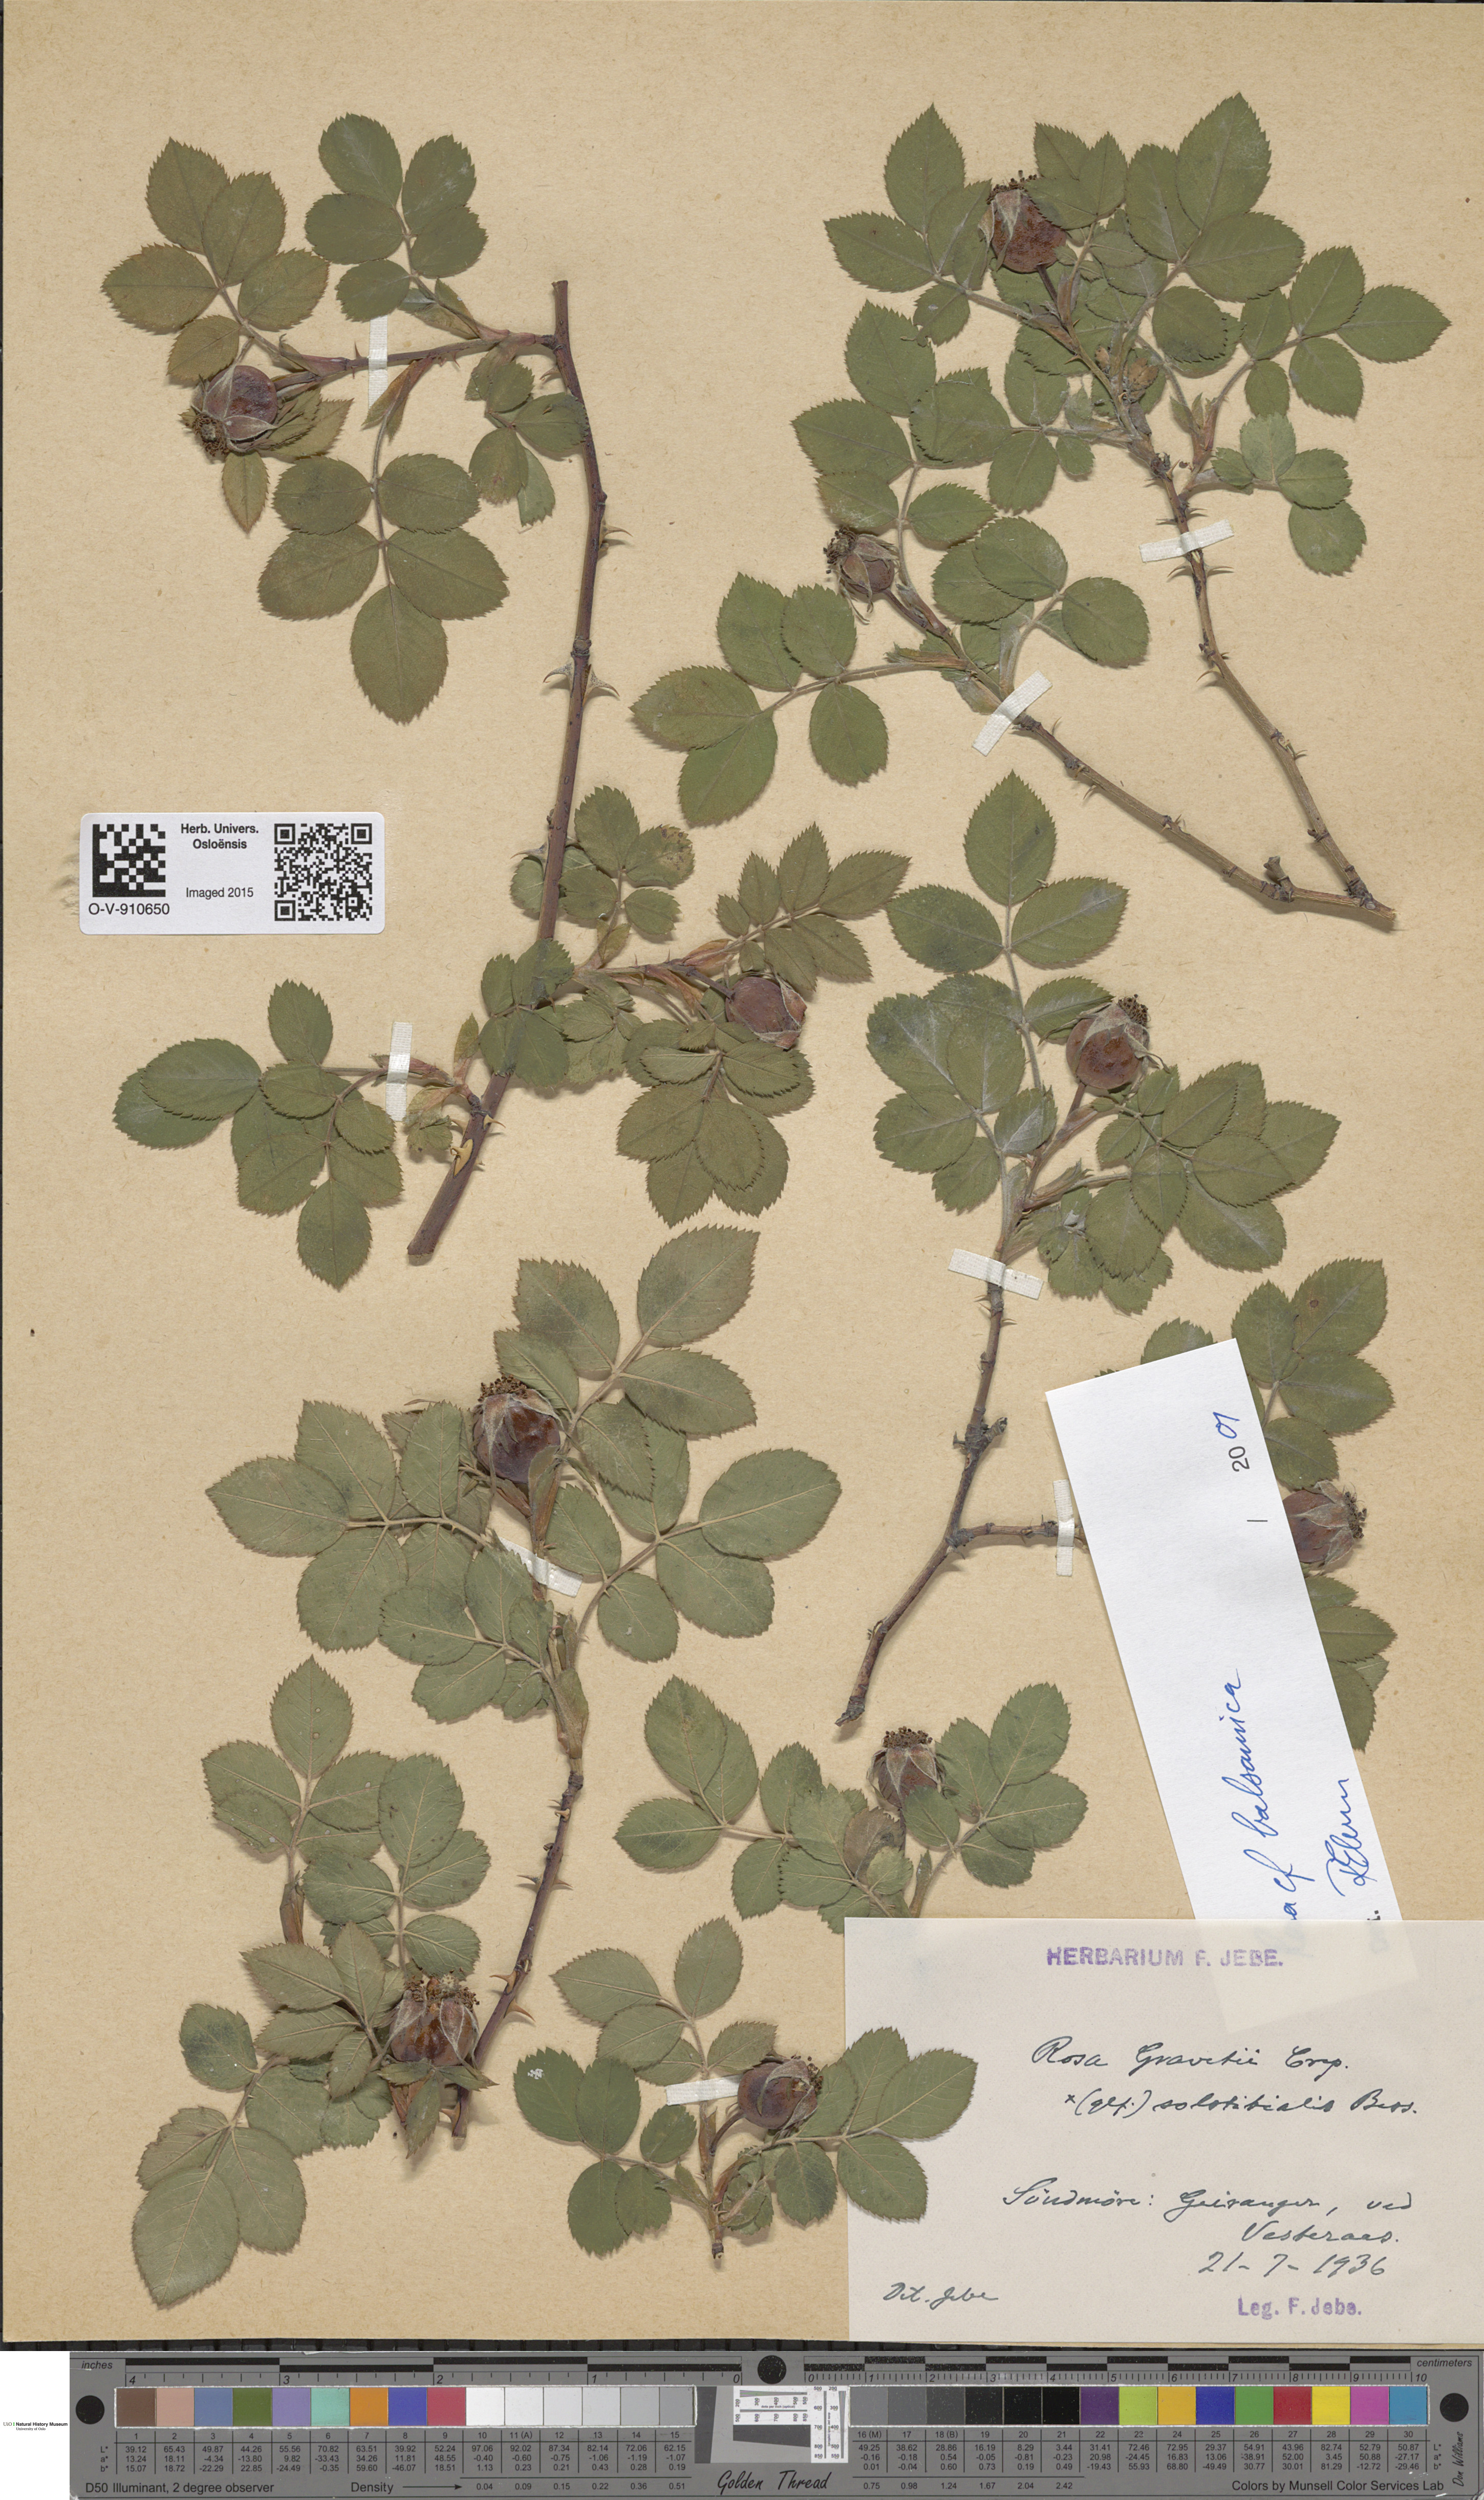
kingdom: Plantae
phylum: Tracheophyta
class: Magnoliopsida
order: Rosales
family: Rosaceae
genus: Rosa
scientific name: Rosa balsamica
